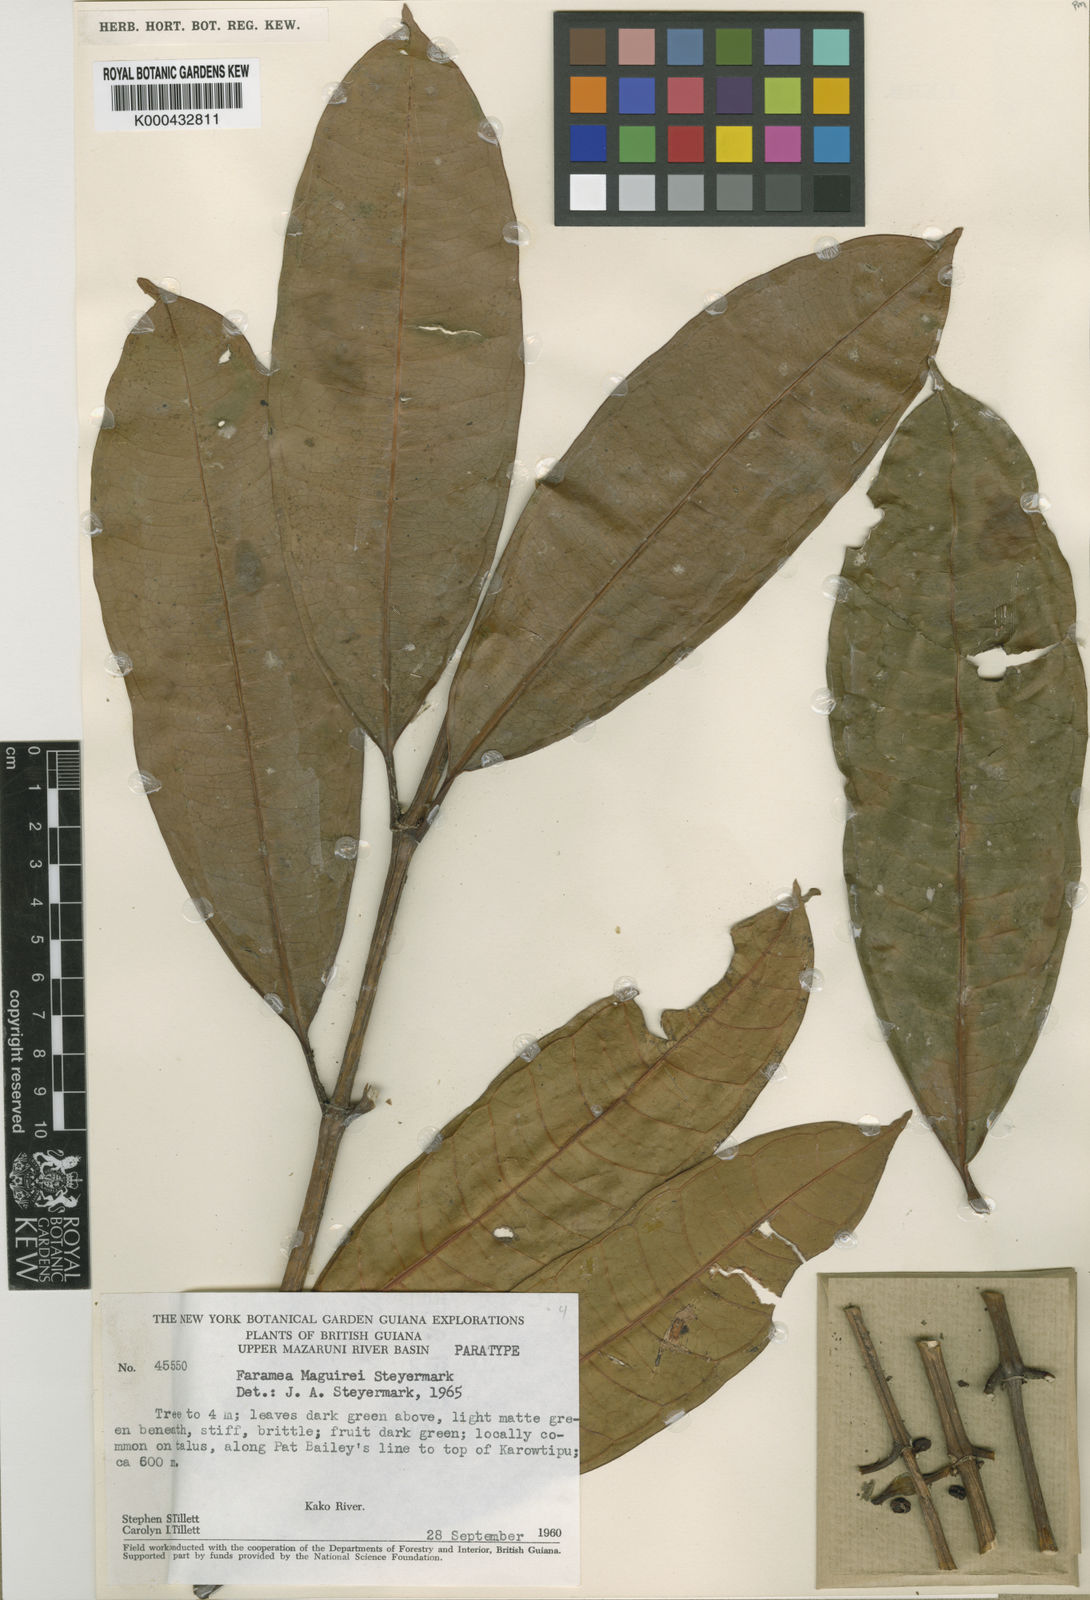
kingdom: Plantae
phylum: Tracheophyta
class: Magnoliopsida
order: Gentianales
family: Rubiaceae
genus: Faramea
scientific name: Faramea maguirei
